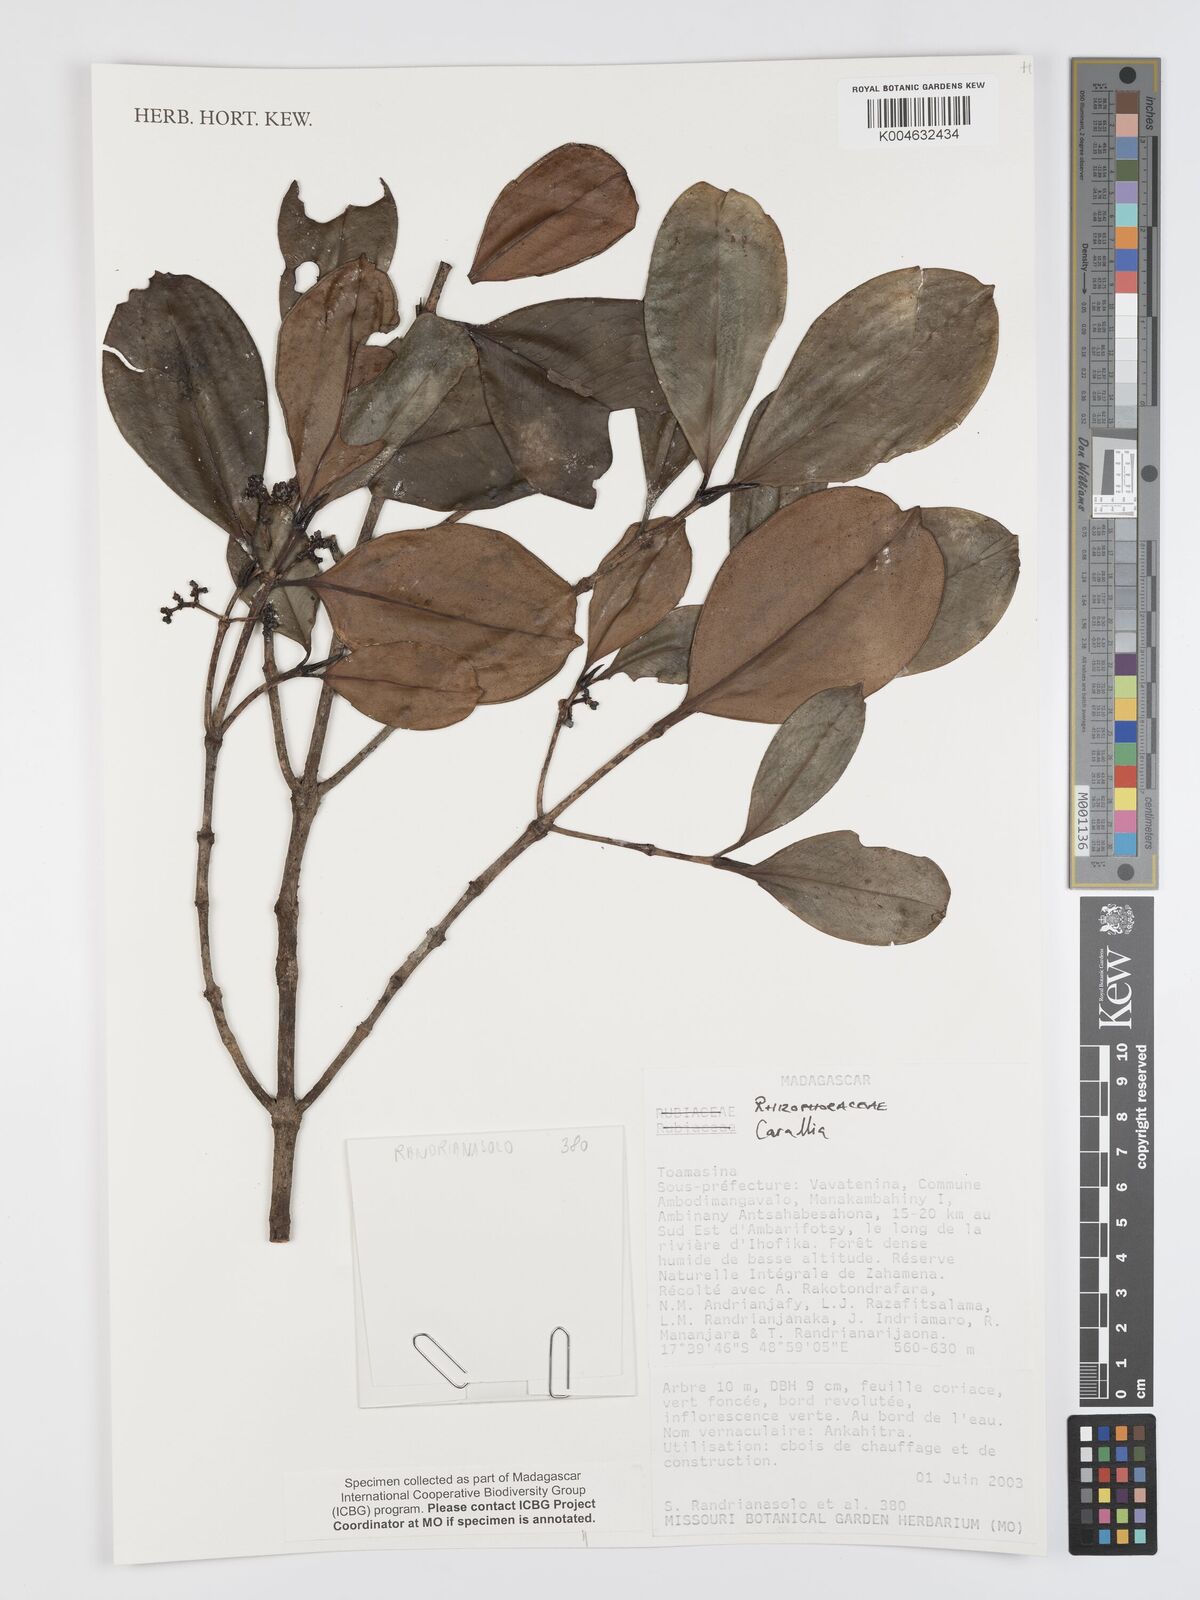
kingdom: Plantae
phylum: Tracheophyta
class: Magnoliopsida
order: Malpighiales
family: Rhizophoraceae
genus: Carallia
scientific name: Carallia
